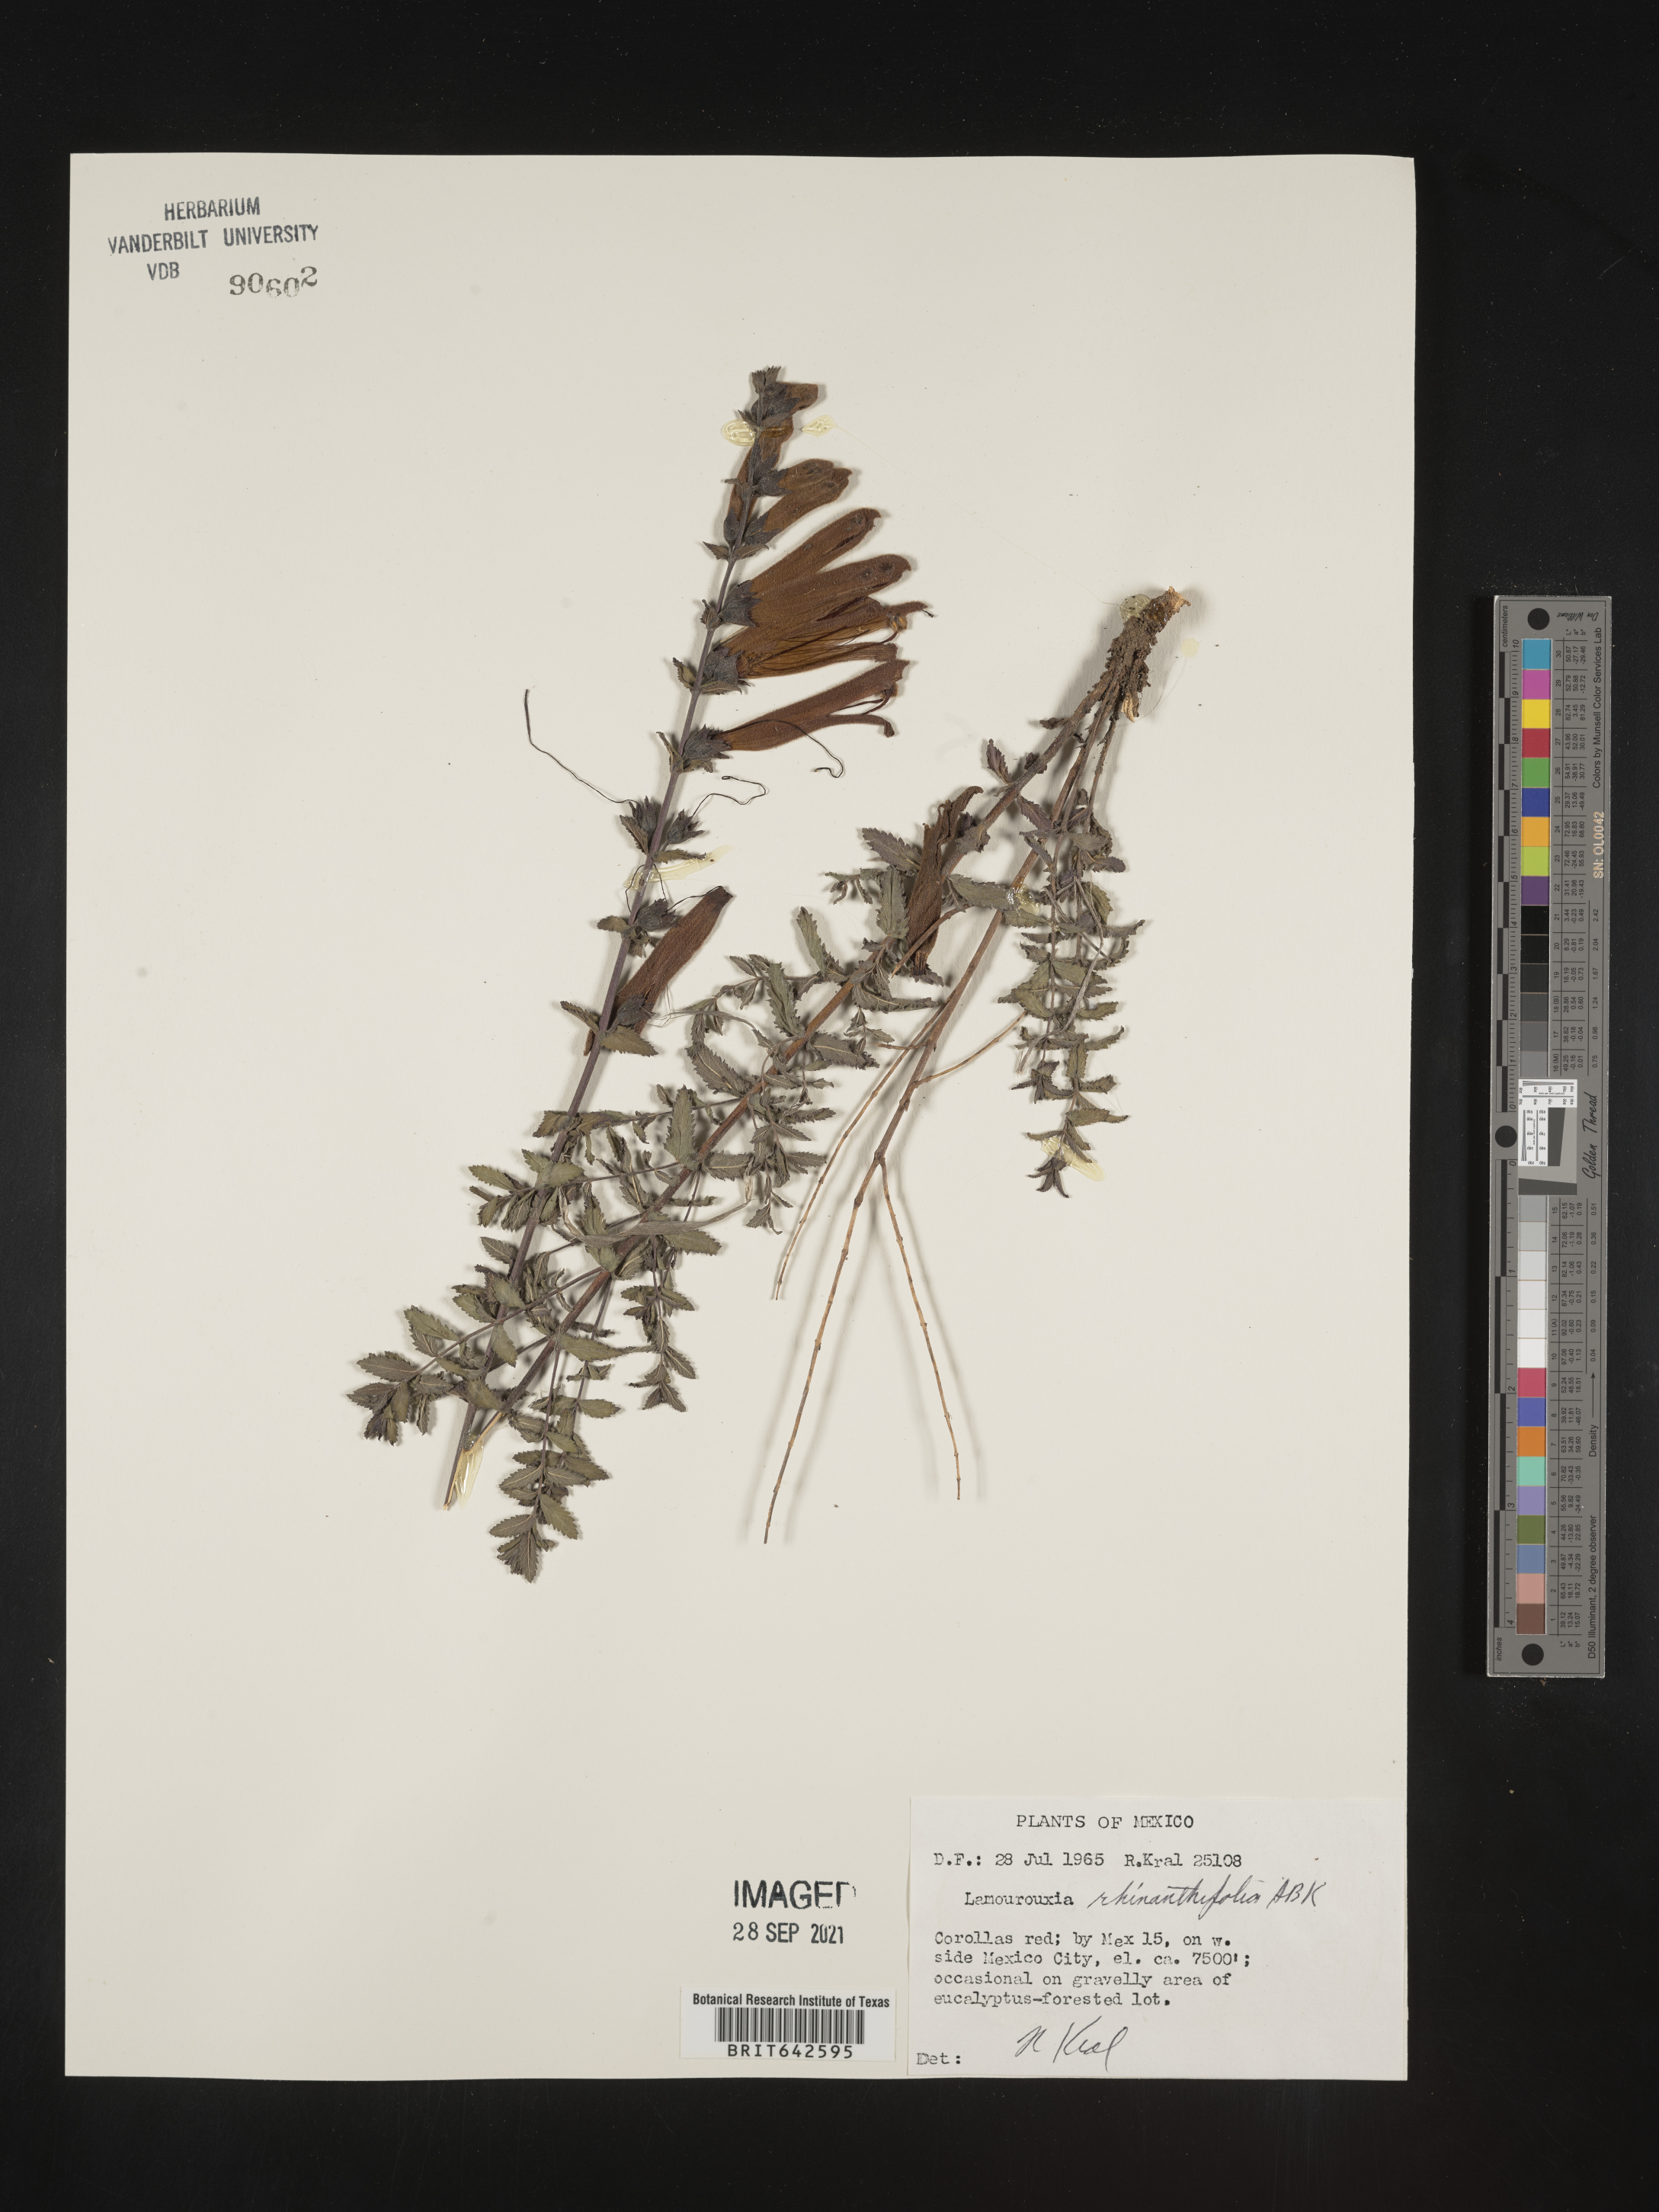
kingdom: Plantae
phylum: Tracheophyta
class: Magnoliopsida
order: Lamiales
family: Orobanchaceae
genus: Lamourouxia
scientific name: Lamourouxia
